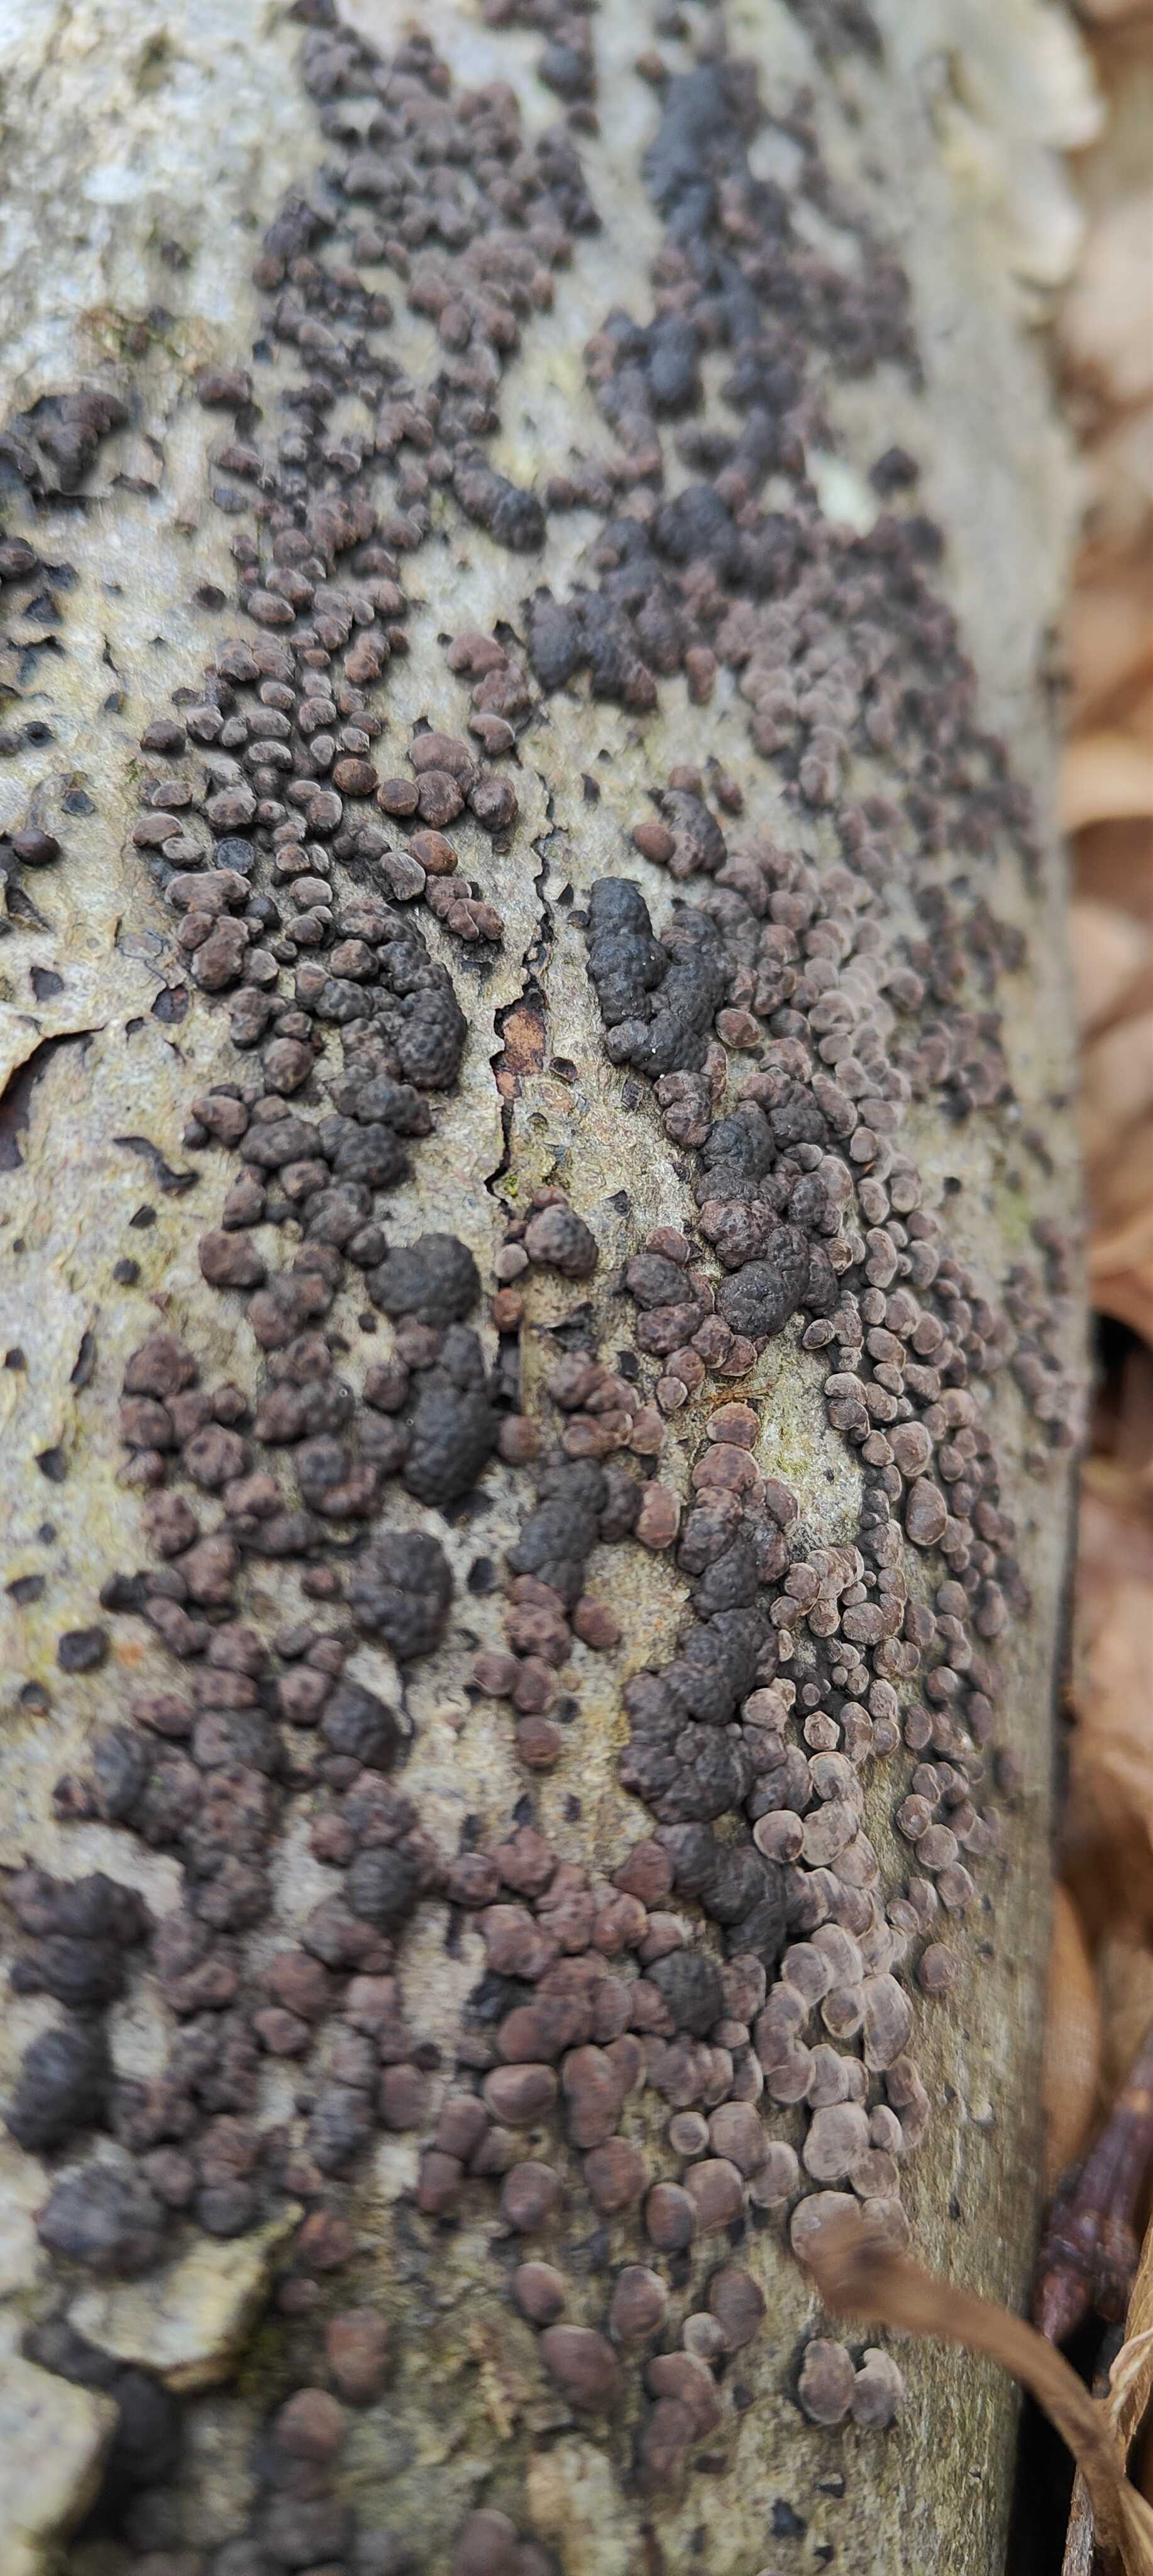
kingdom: Fungi
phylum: Ascomycota
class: Sordariomycetes
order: Xylariales
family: Hypoxylaceae
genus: Jackrogersella
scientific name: Jackrogersella cohaerens
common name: sammenflydende kulbær
